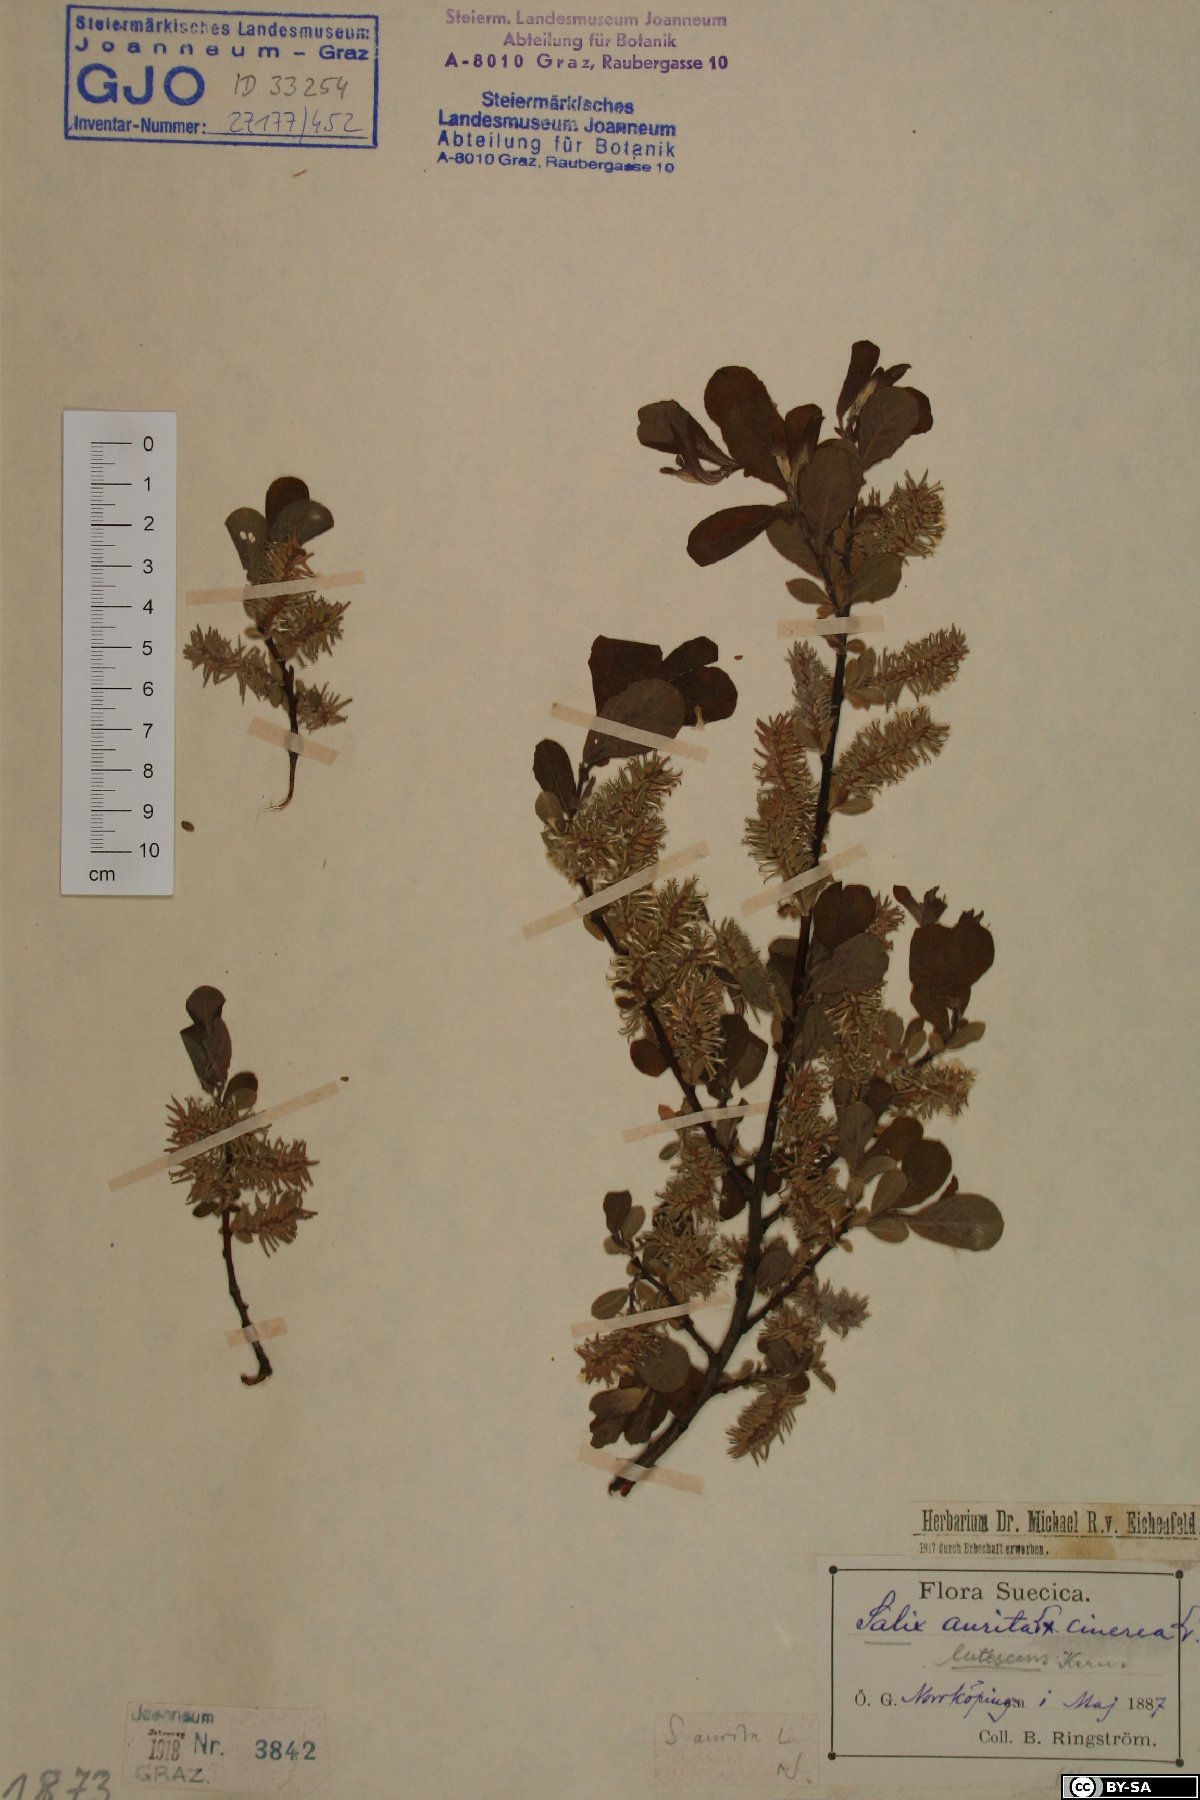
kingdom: Plantae
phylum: Tracheophyta
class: Magnoliopsida
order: Malpighiales
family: Salicaceae
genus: Salix
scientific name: Salix aurita
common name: Eared willow
